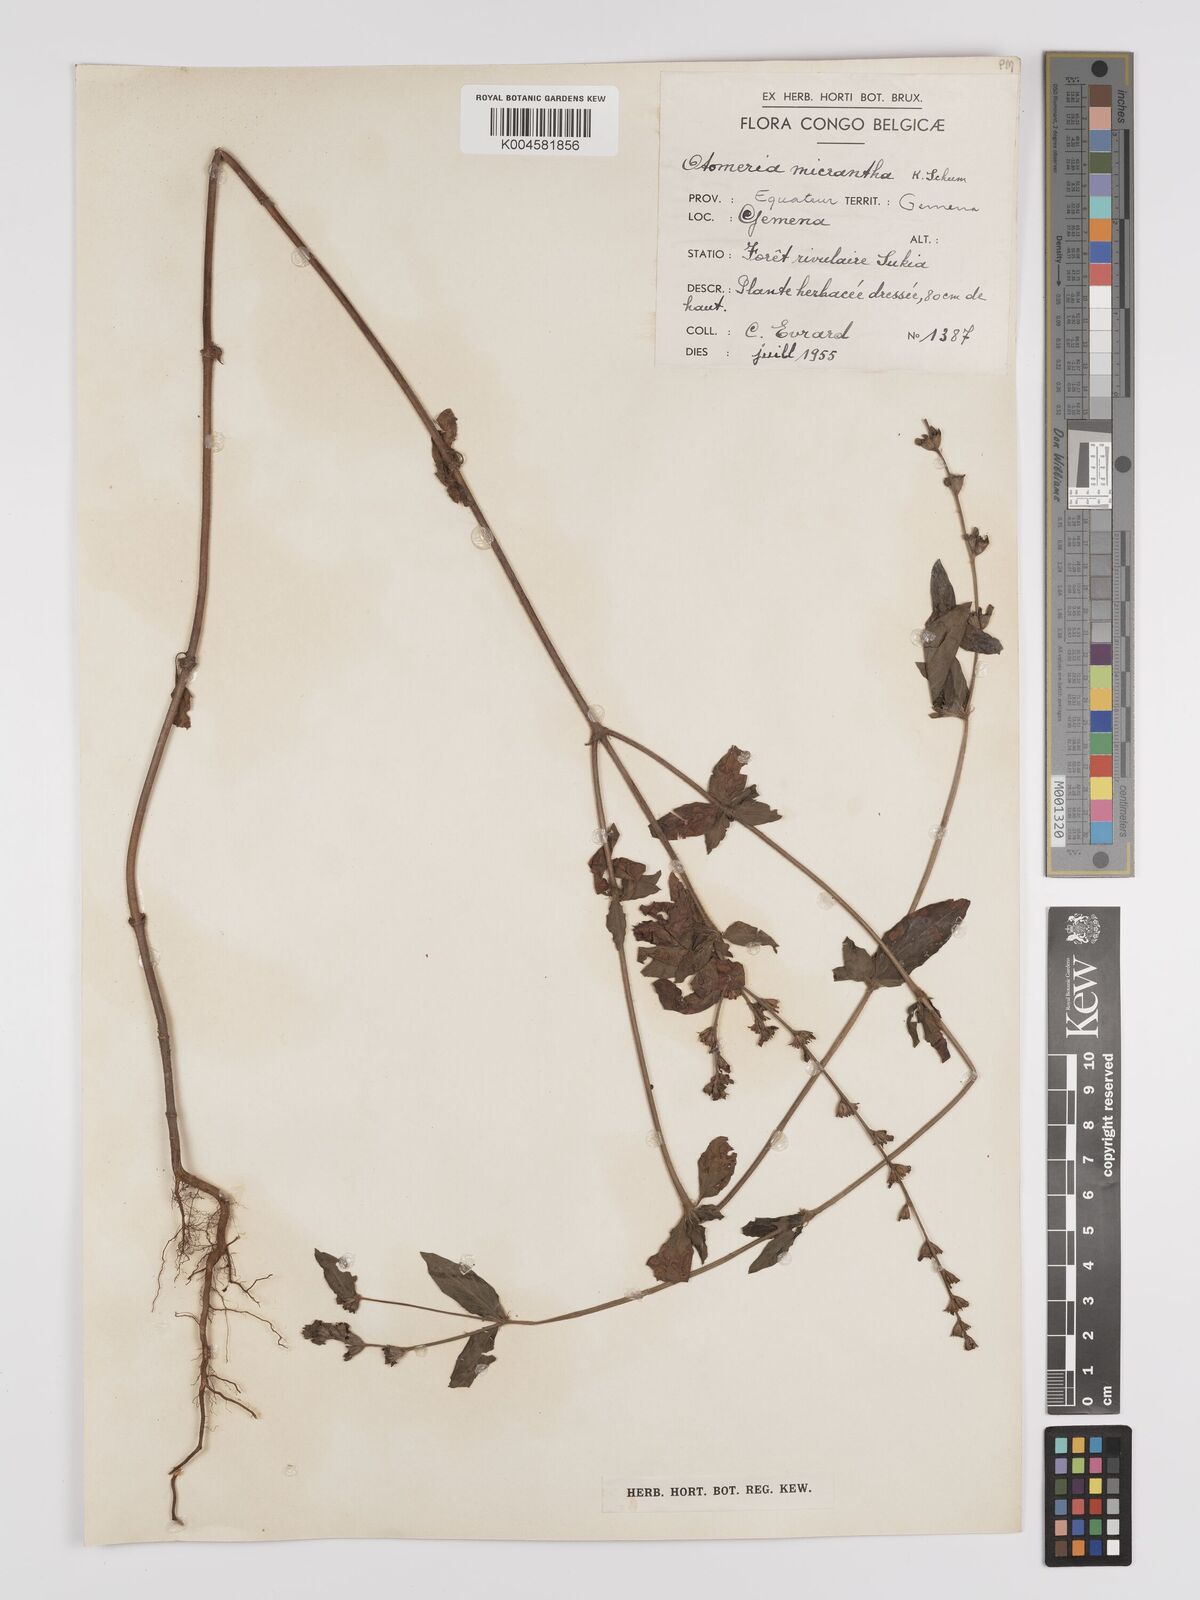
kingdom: Plantae
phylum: Tracheophyta
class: Magnoliopsida
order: Gentianales
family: Rubiaceae
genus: Otomeria
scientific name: Otomeria micrantha
